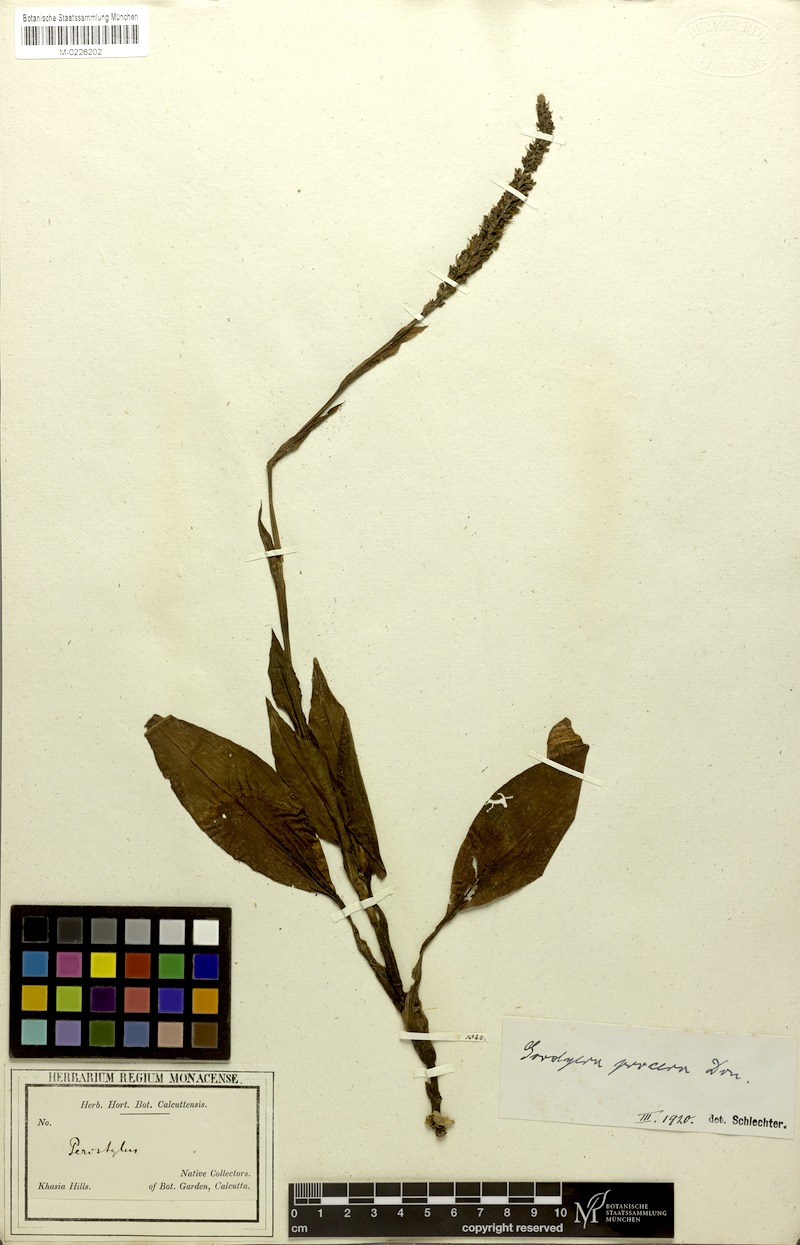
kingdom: Plantae
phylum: Tracheophyta
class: Liliopsida
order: Asparagales
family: Orchidaceae
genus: Goodyera
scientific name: Goodyera procera
